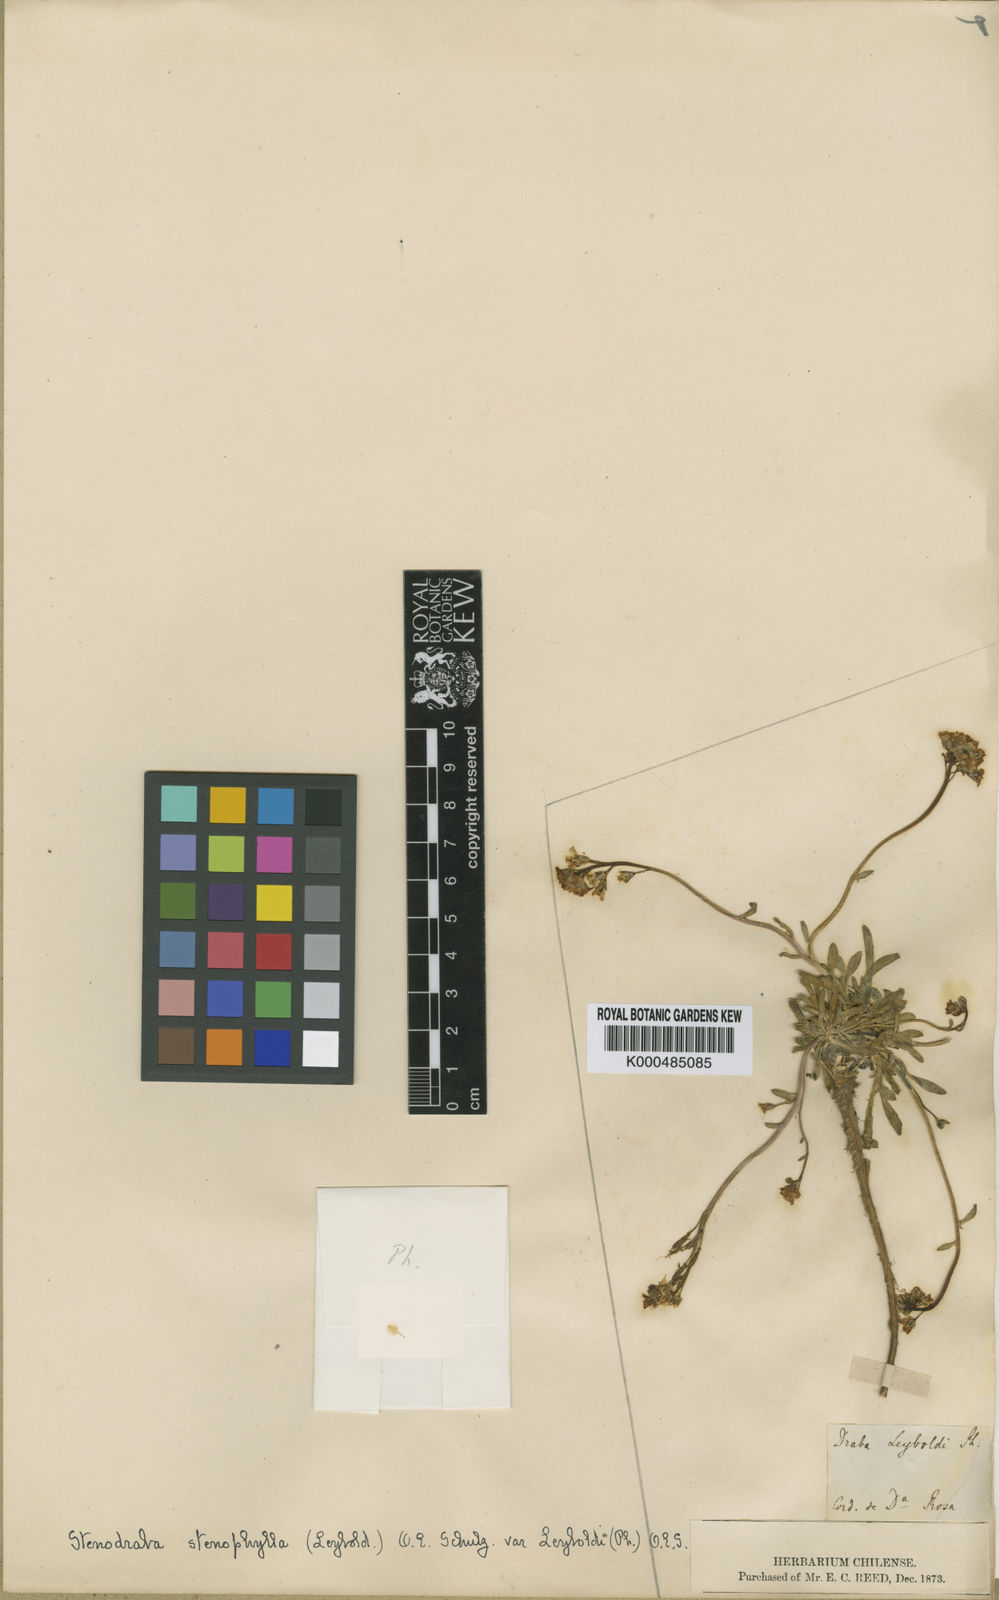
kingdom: Plantae
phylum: Tracheophyta
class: Magnoliopsida
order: Brassicales
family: Brassicaceae
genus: Stenodraba
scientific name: Stenodraba stenophylla
